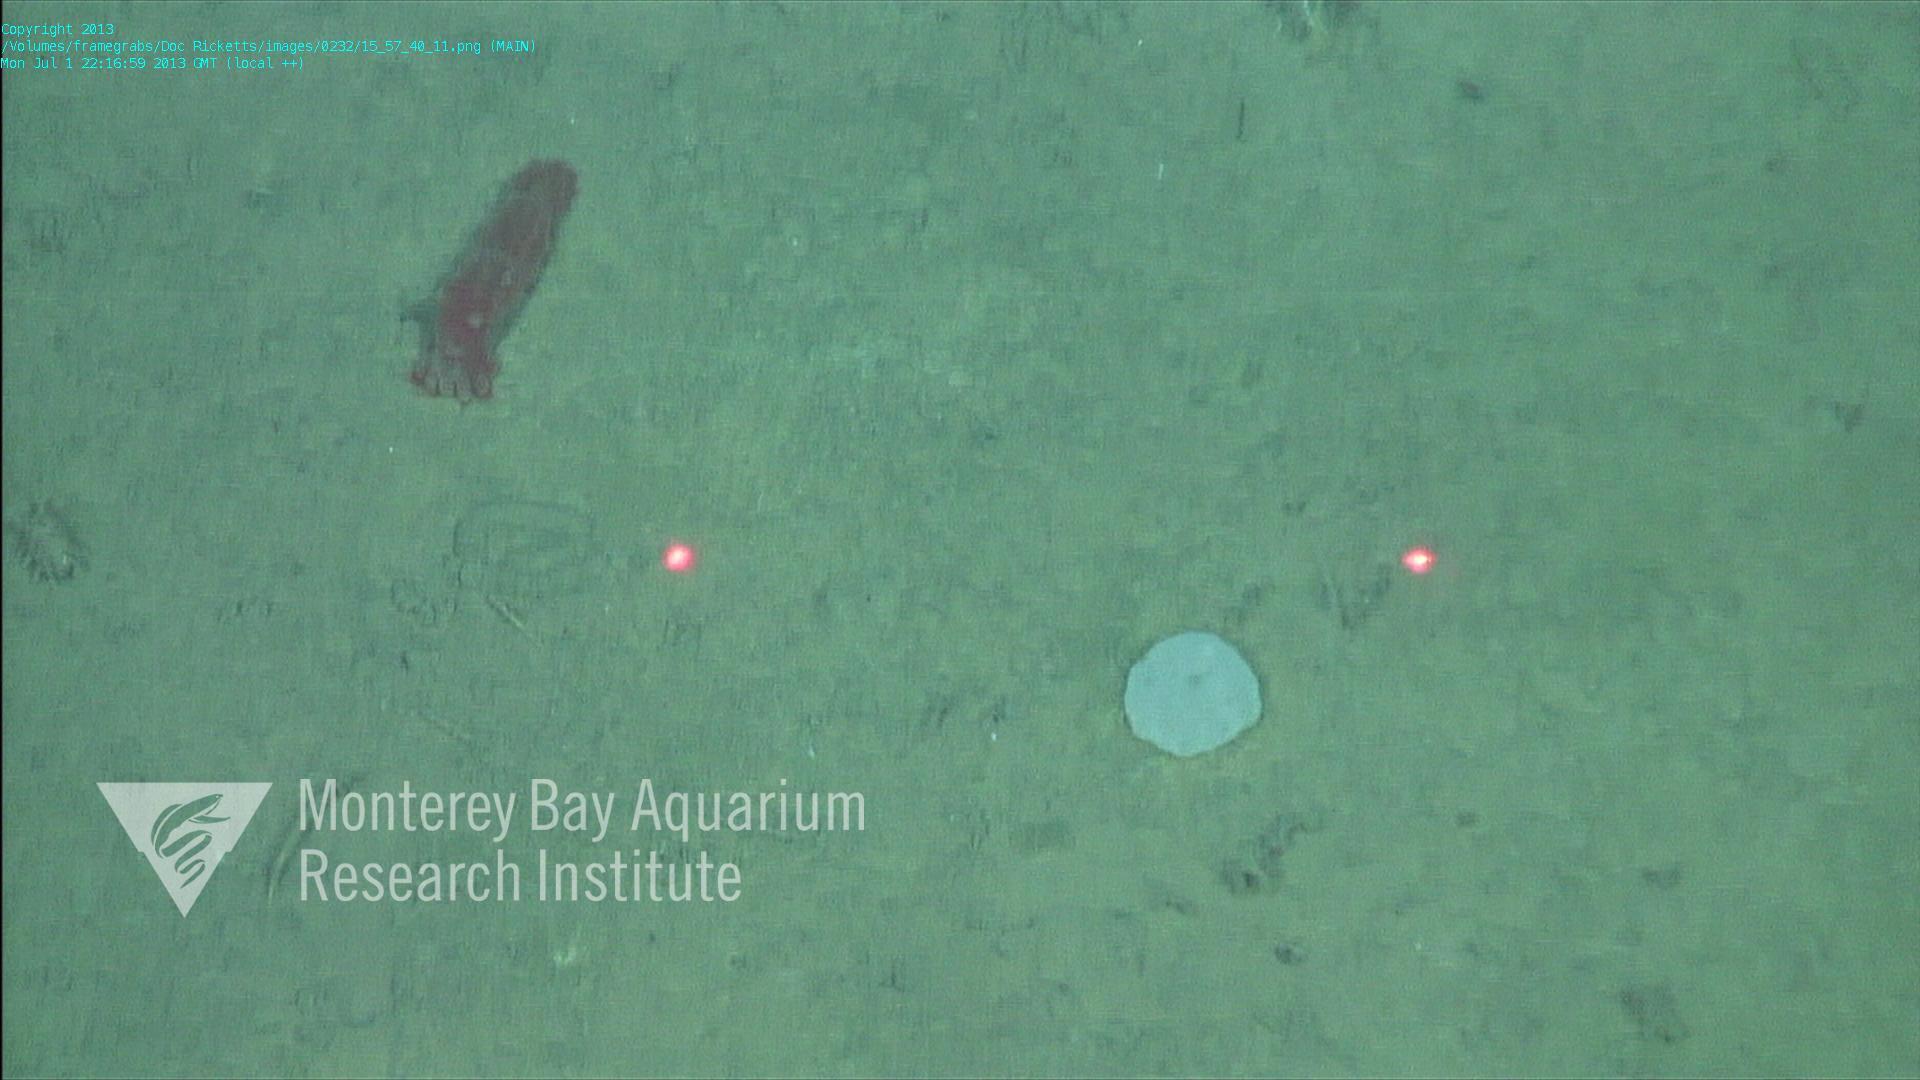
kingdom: Animalia
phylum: Porifera
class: Hexactinellida
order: Lyssacinosida
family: Euplectellidae
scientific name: Euplectellidae
